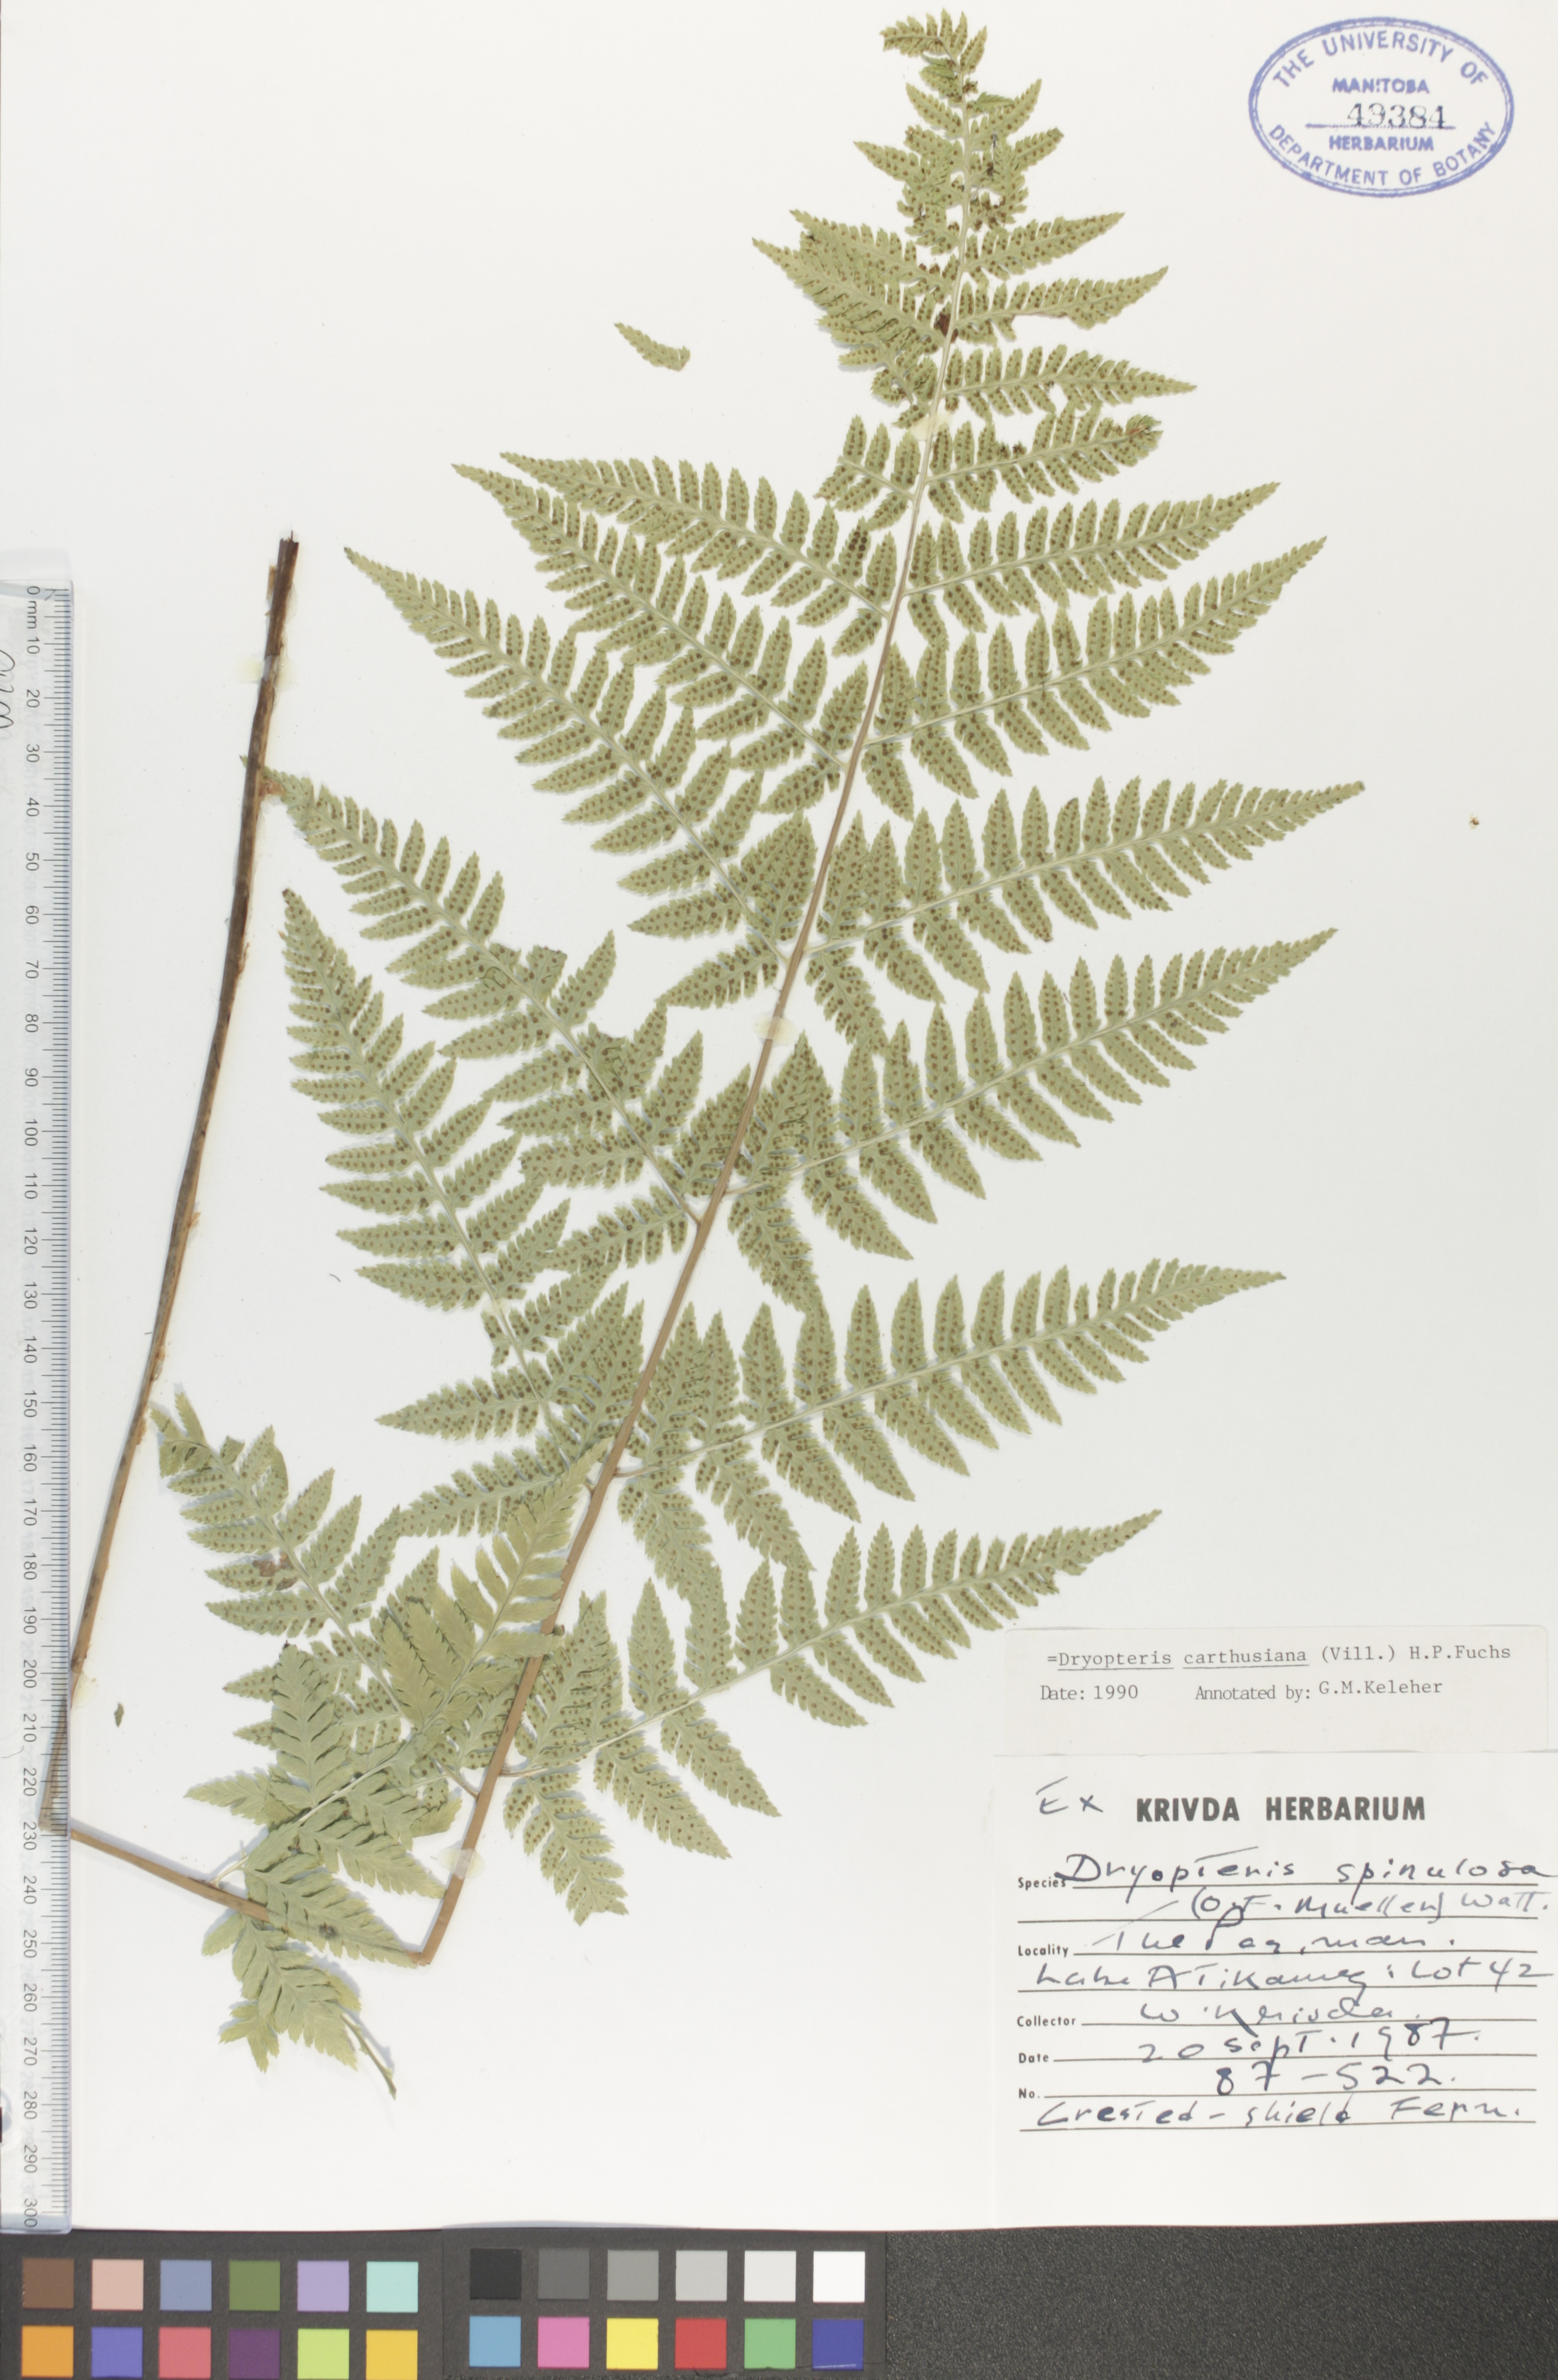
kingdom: Plantae
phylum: Tracheophyta
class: Polypodiopsida
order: Polypodiales
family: Dryopteridaceae
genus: Dryopteris
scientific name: Dryopteris carthusiana
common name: Narrow buckler-fern
